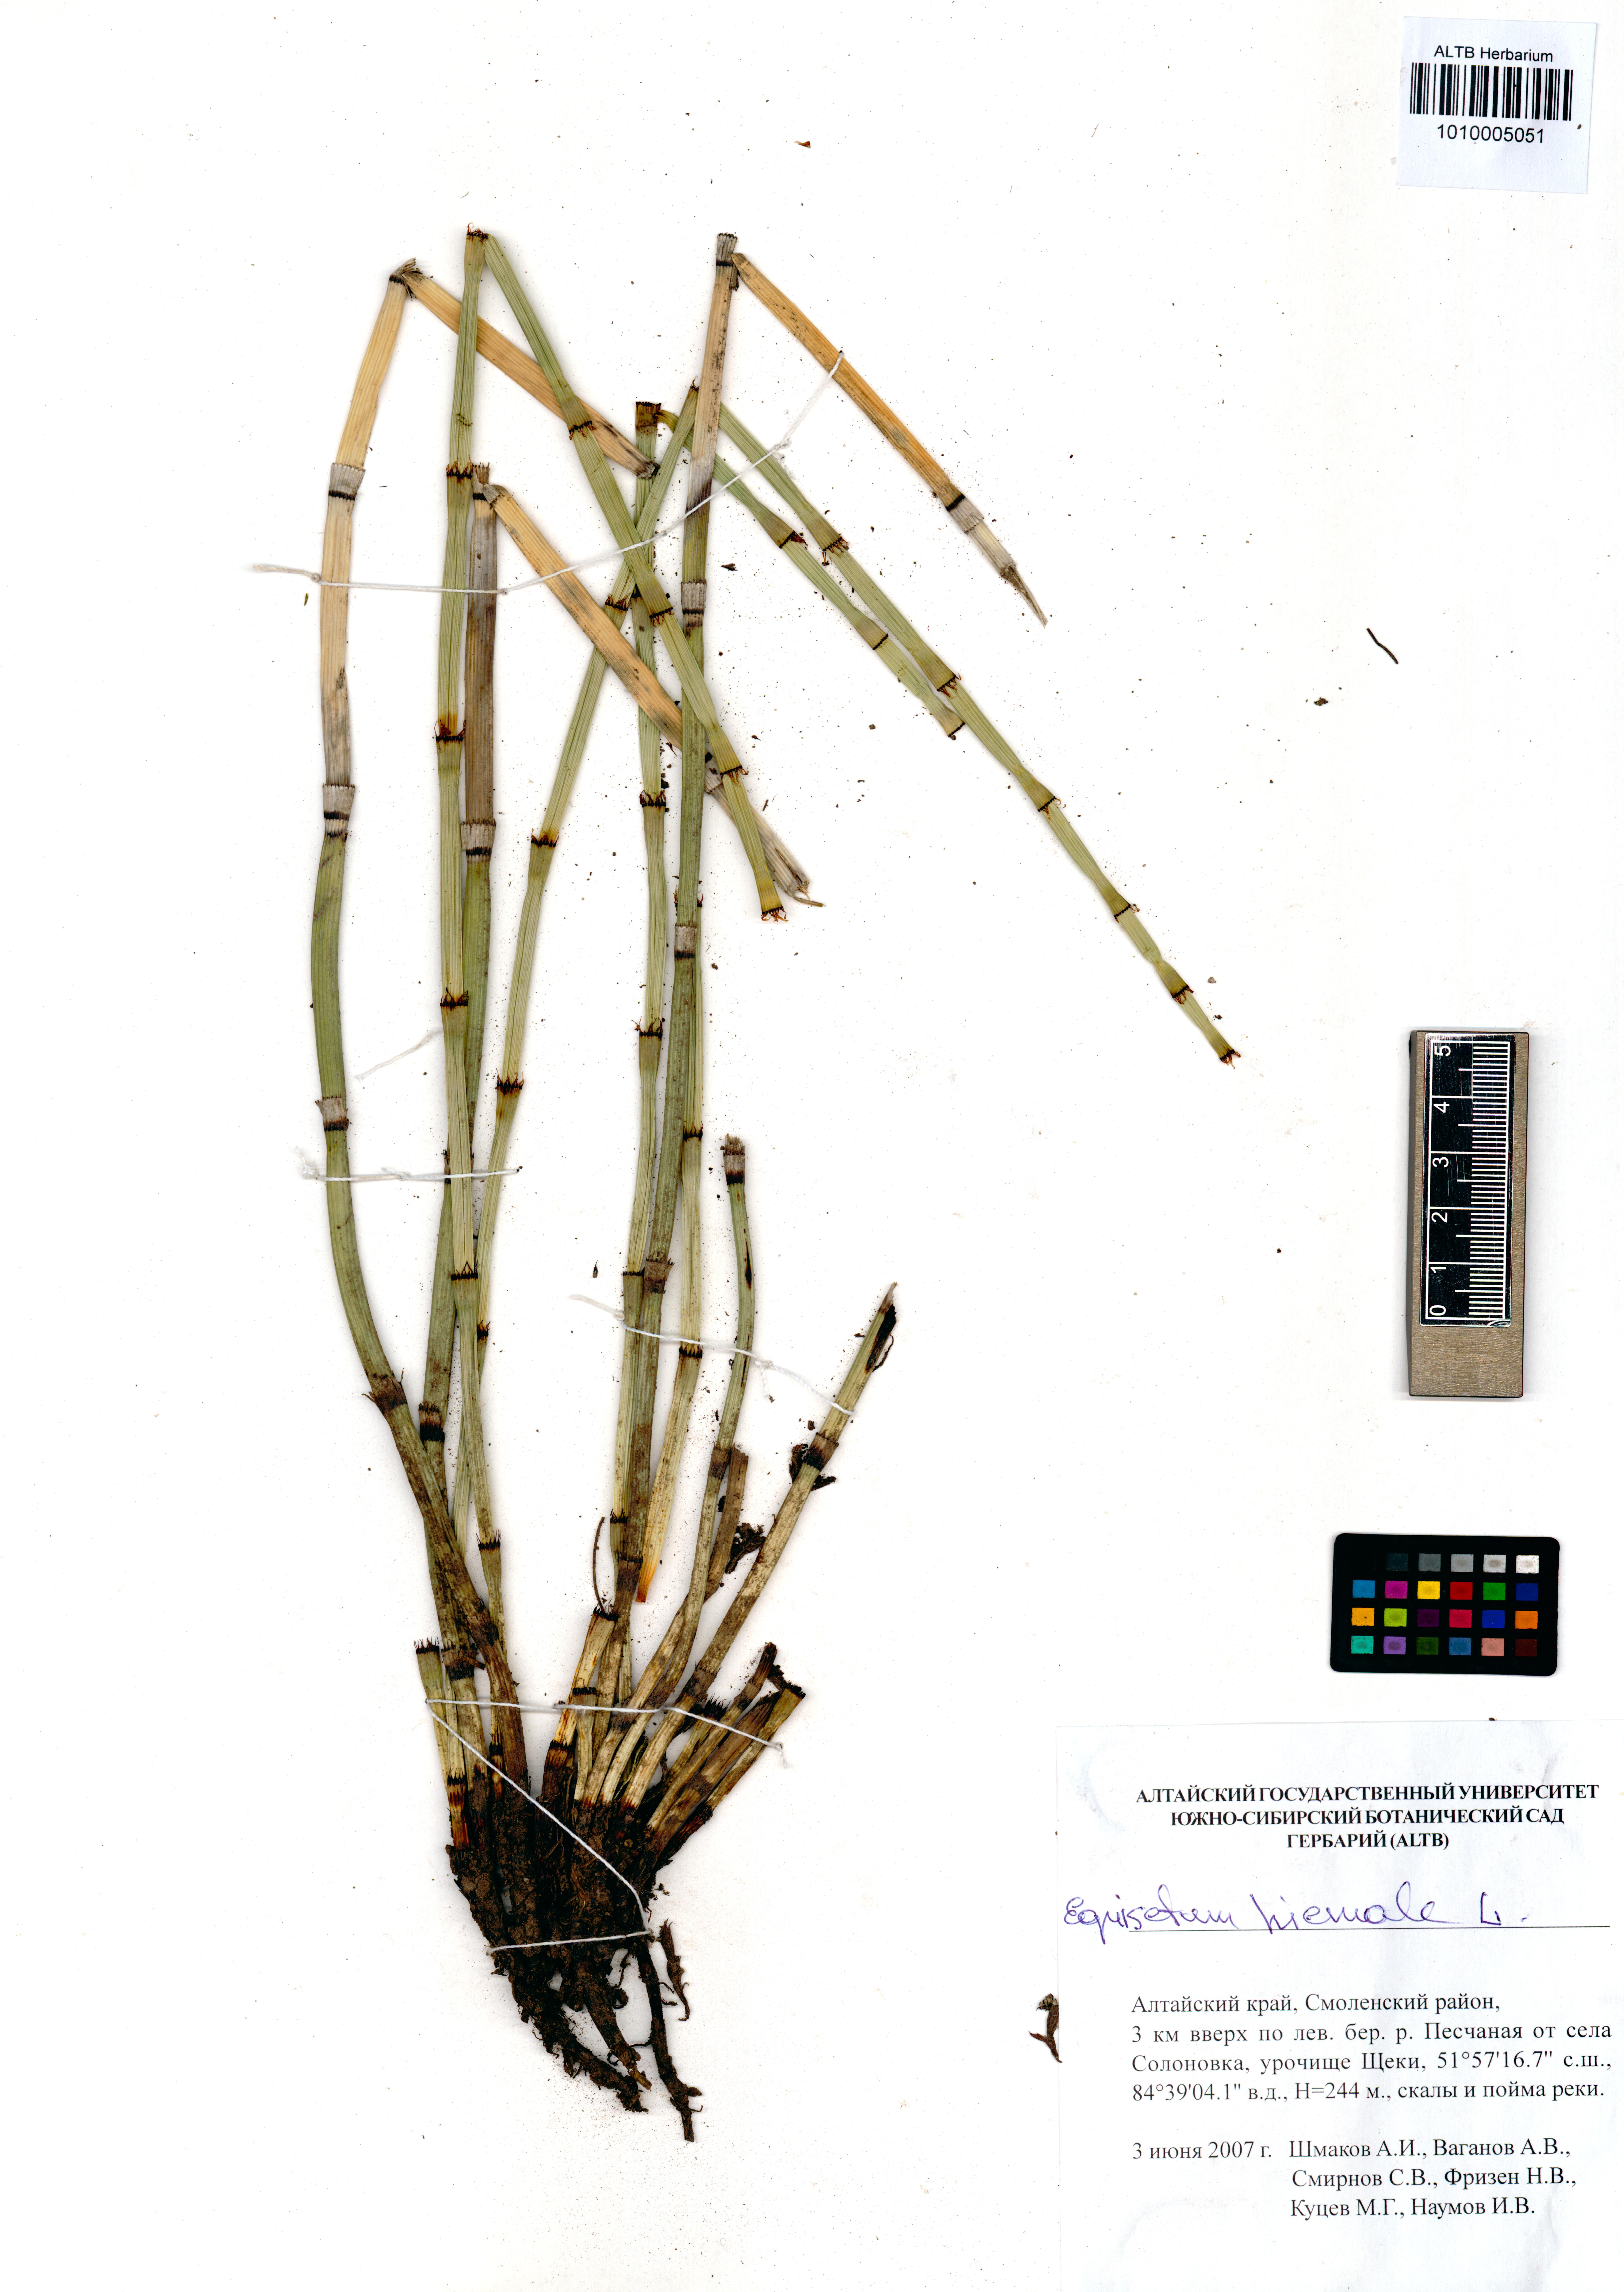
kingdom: Plantae
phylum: Tracheophyta
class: Polypodiopsida
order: Equisetales
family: Equisetaceae
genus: Equisetum
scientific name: Equisetum hyemale
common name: Rough horsetail
